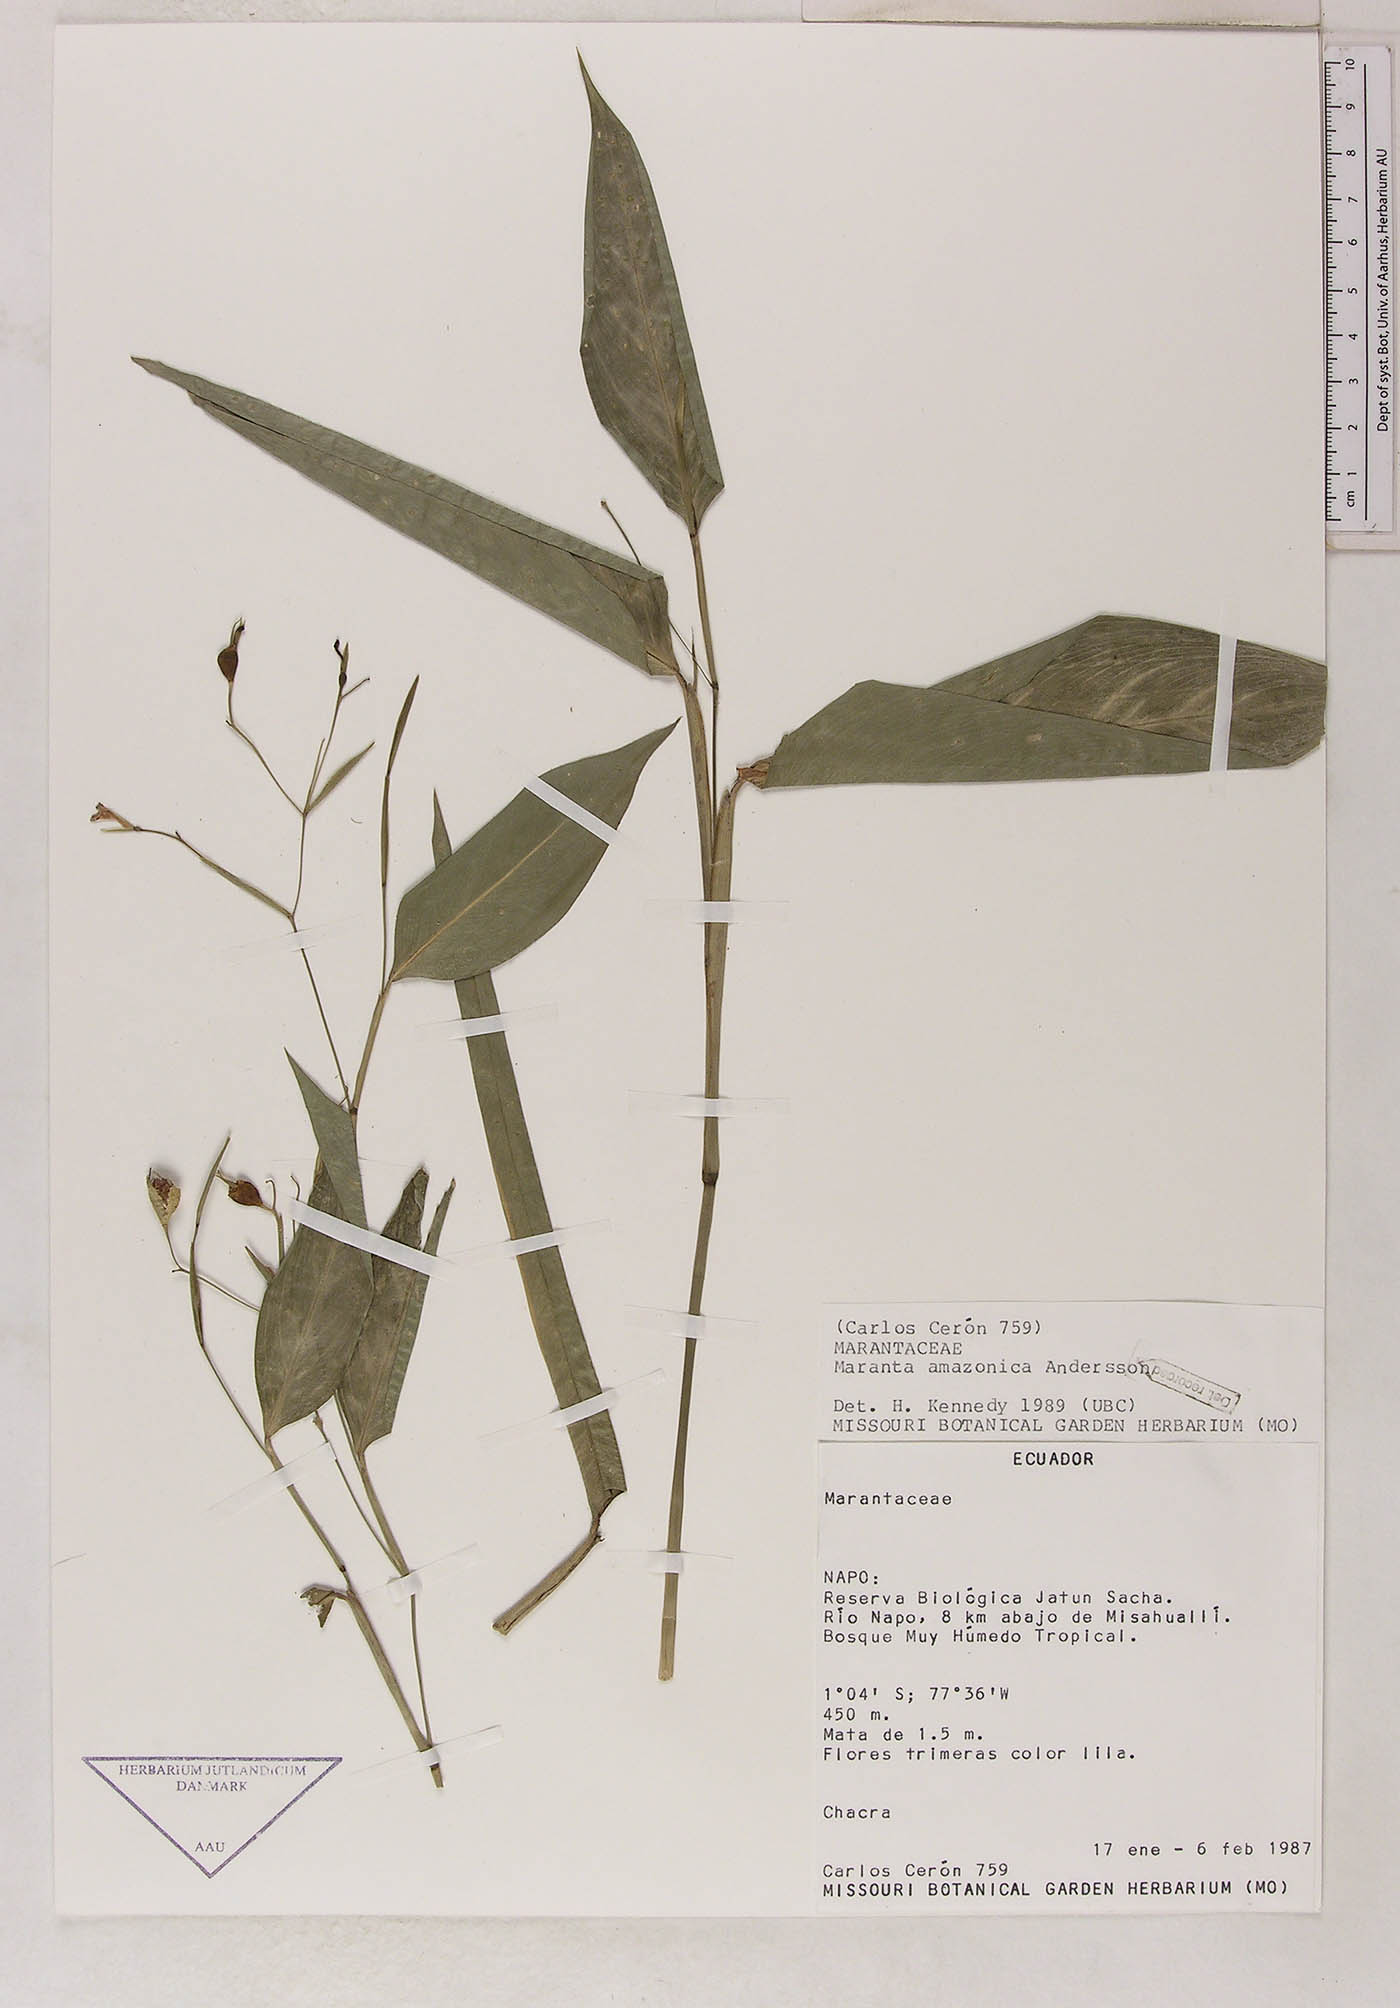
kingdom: Plantae
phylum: Tracheophyta
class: Liliopsida
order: Zingiberales
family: Marantaceae
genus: Maranta
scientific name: Maranta amazonica
